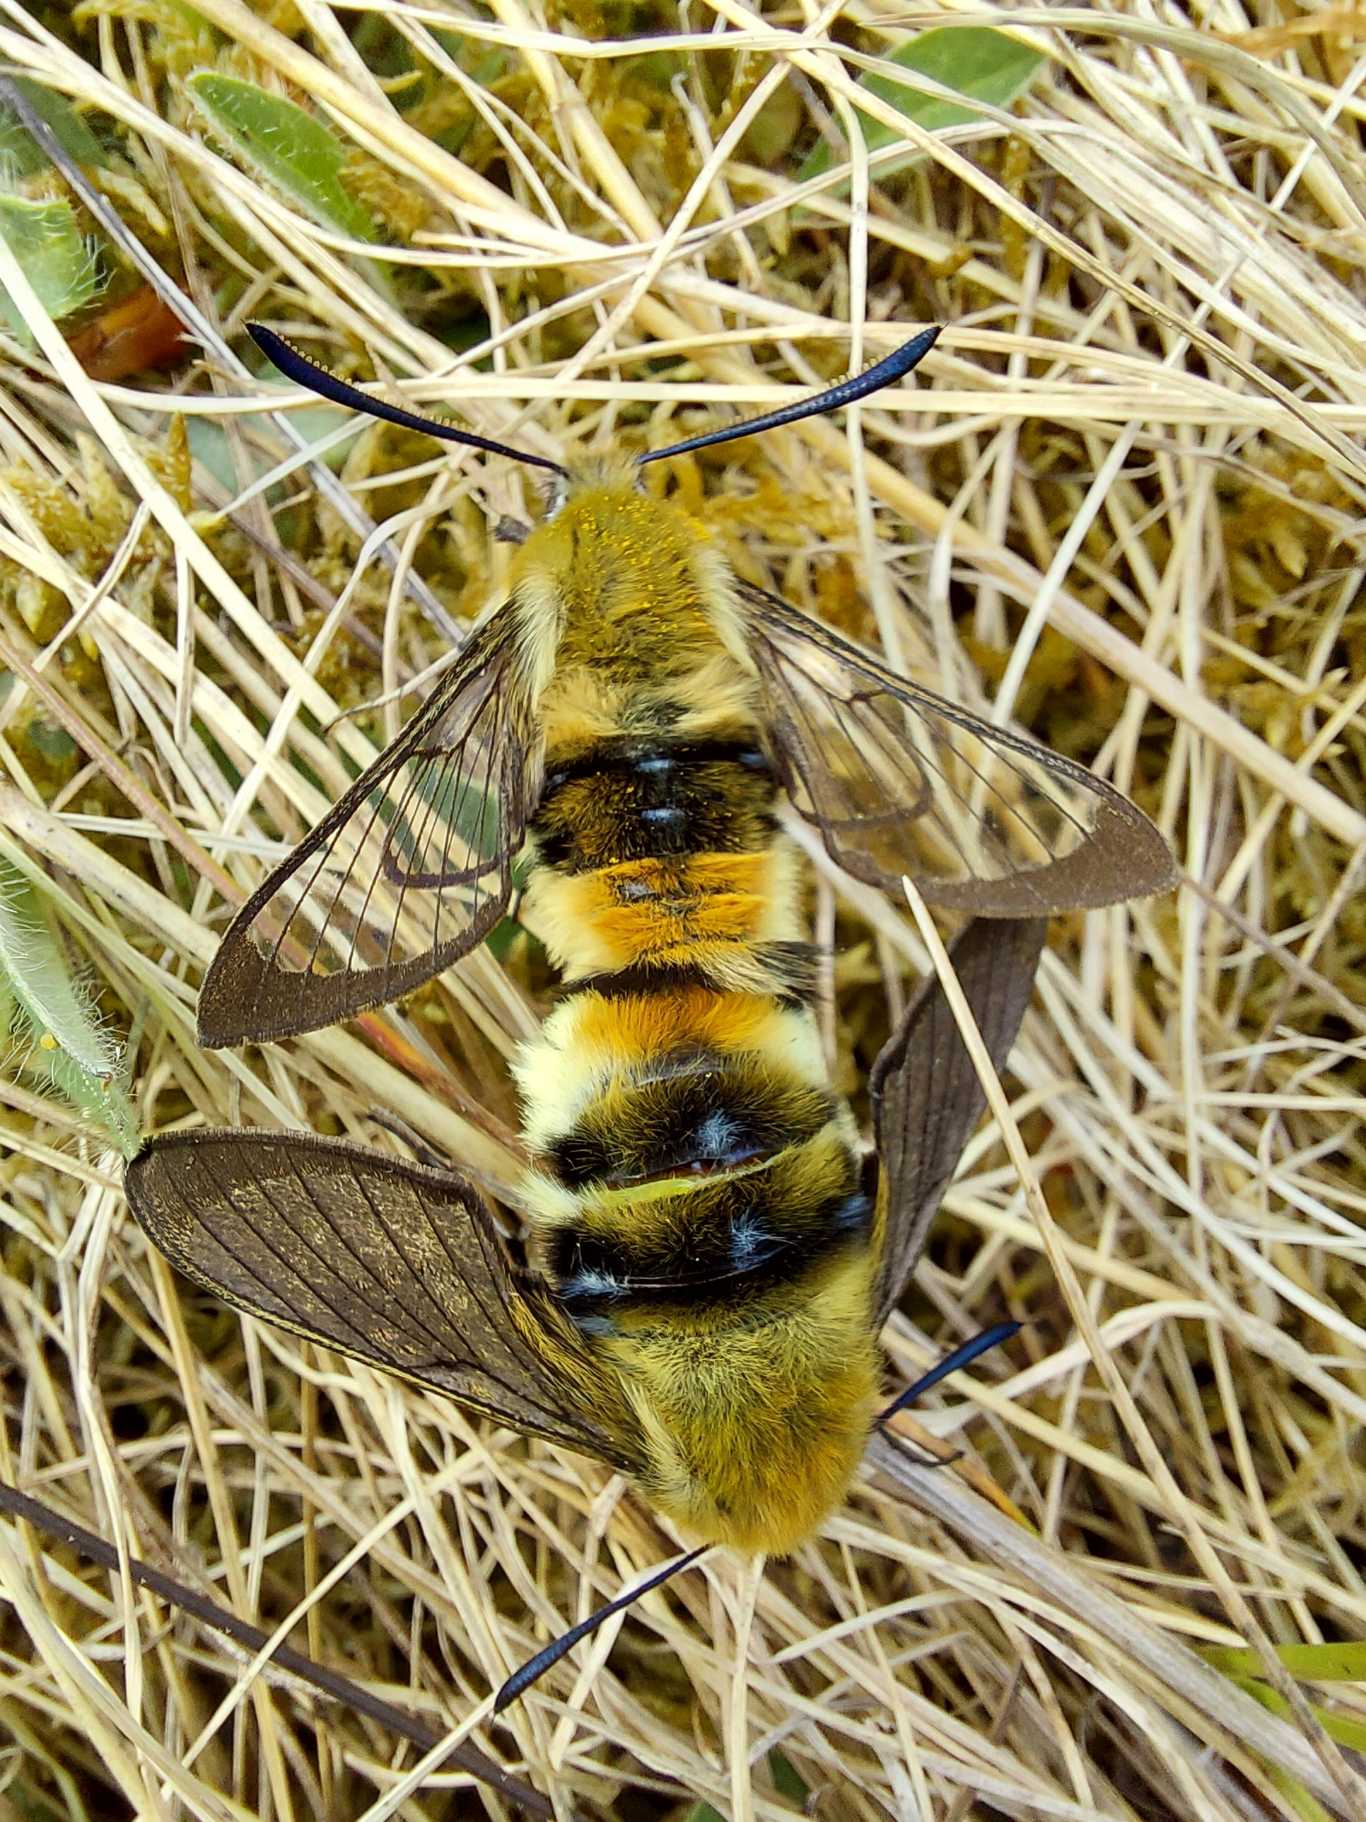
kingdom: Animalia
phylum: Arthropoda
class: Insecta
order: Lepidoptera
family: Sphingidae
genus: Hemaris
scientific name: Hemaris tityus
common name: Smalrandet humlebisværmer
